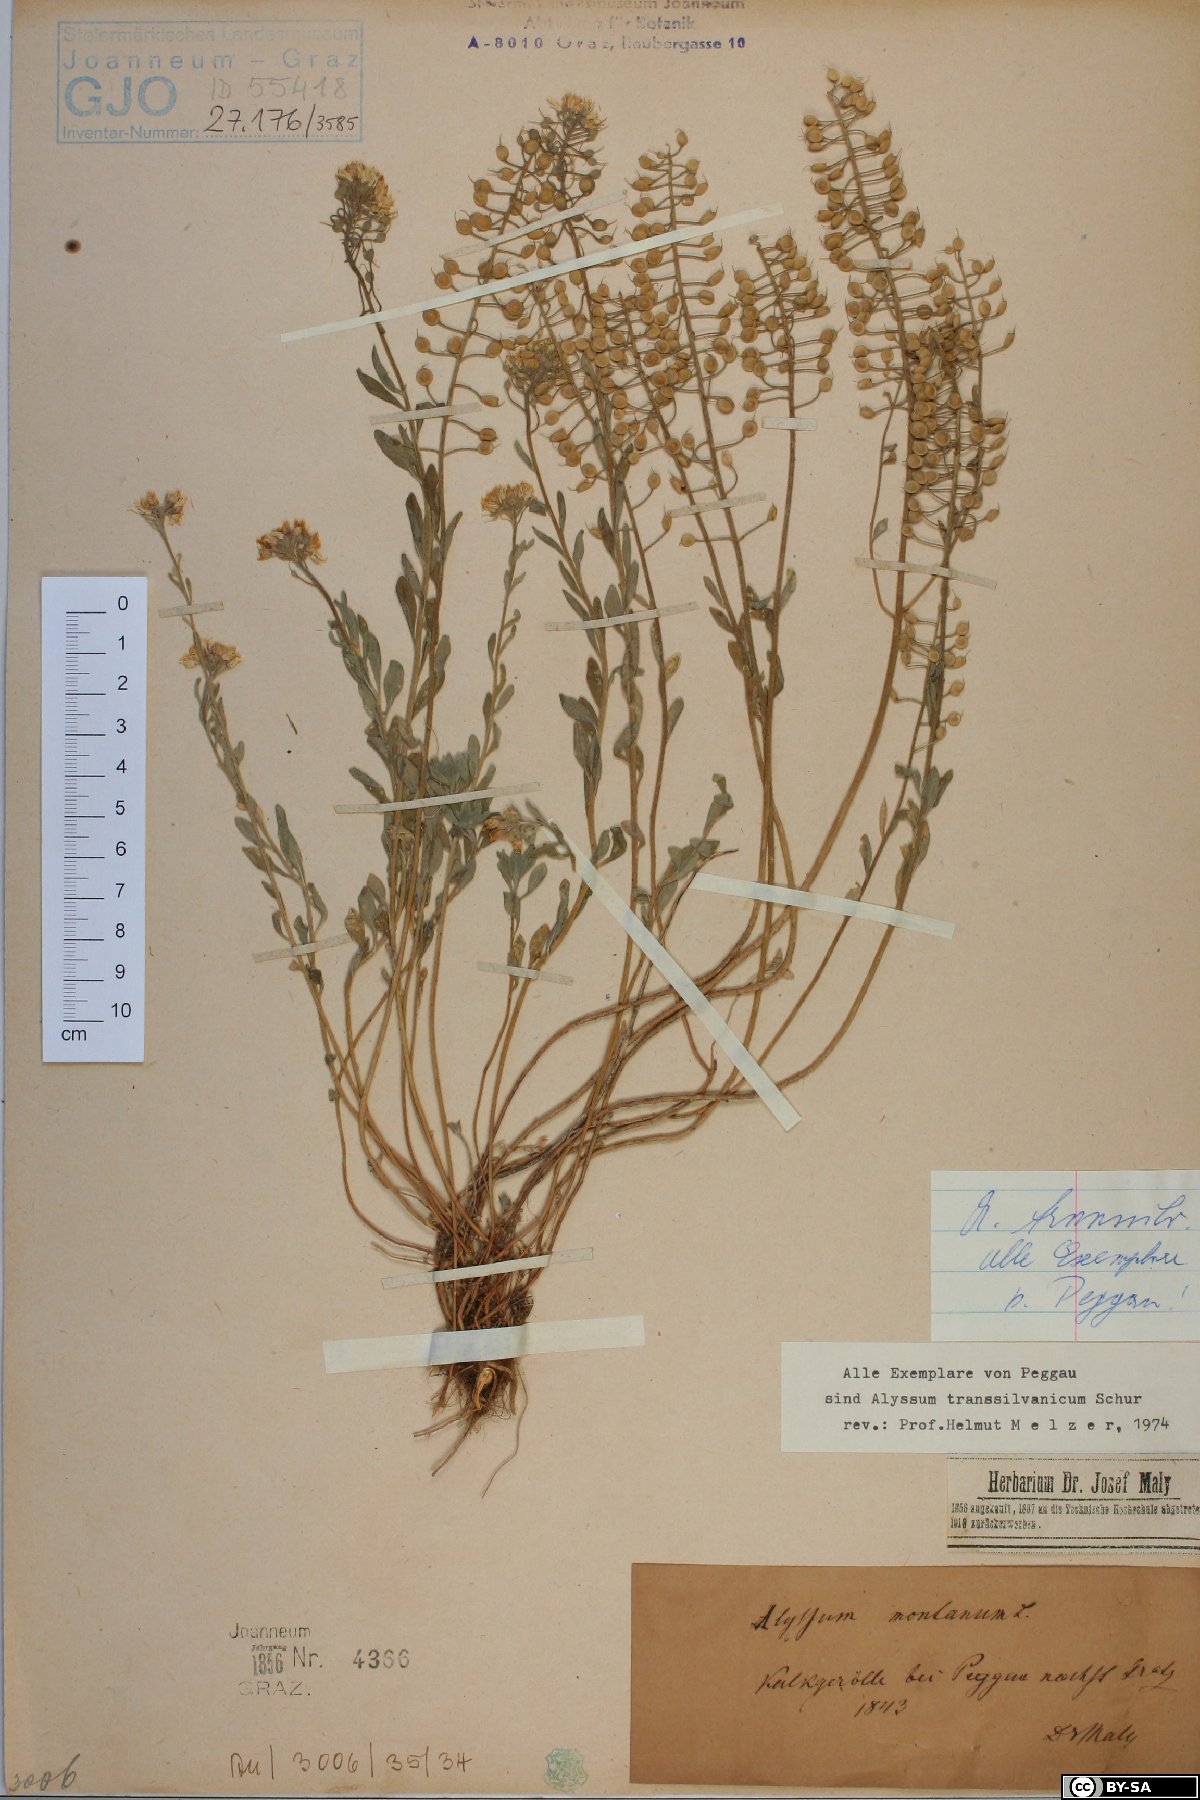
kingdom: Plantae
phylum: Tracheophyta
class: Magnoliopsida
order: Brassicales
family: Brassicaceae
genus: Alyssum
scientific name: Alyssum repens
